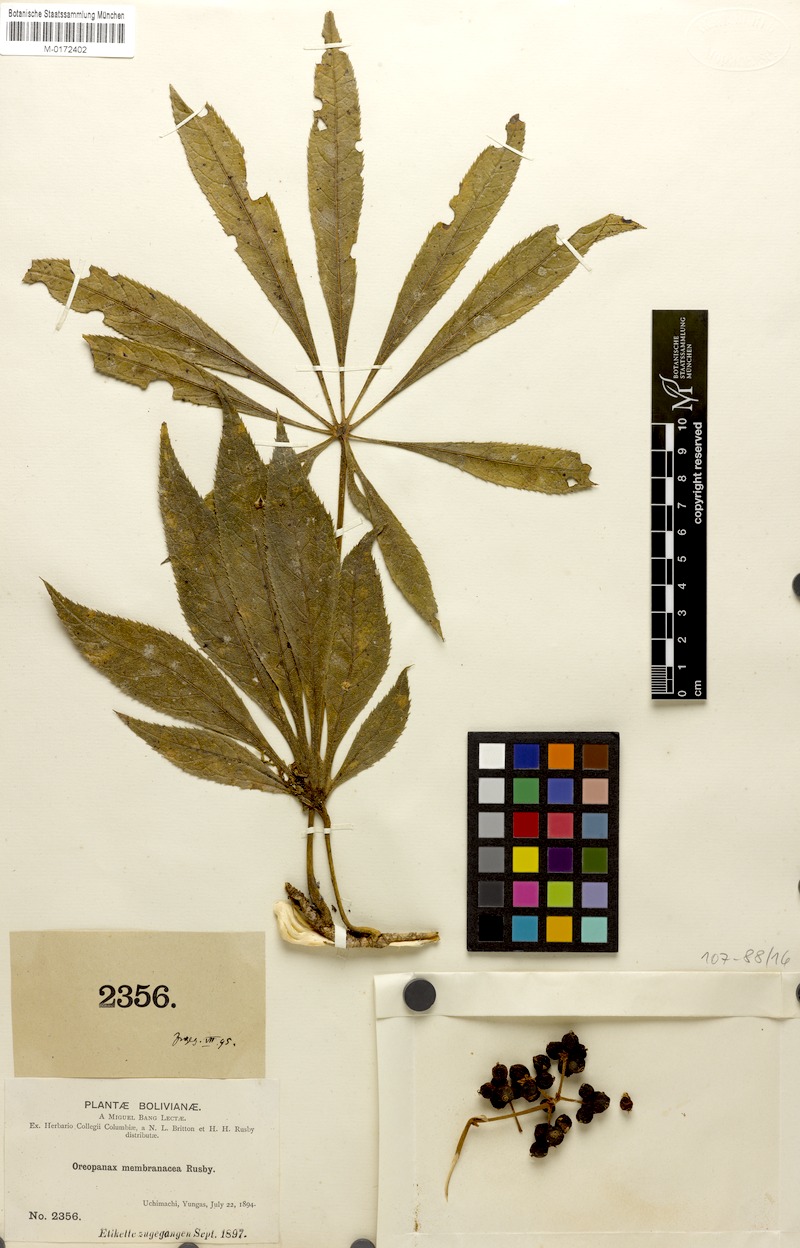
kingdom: Plantae
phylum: Tracheophyta
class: Magnoliopsida
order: Apiales
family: Araliaceae
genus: Oreopanax
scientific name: Oreopanax membranaceus
